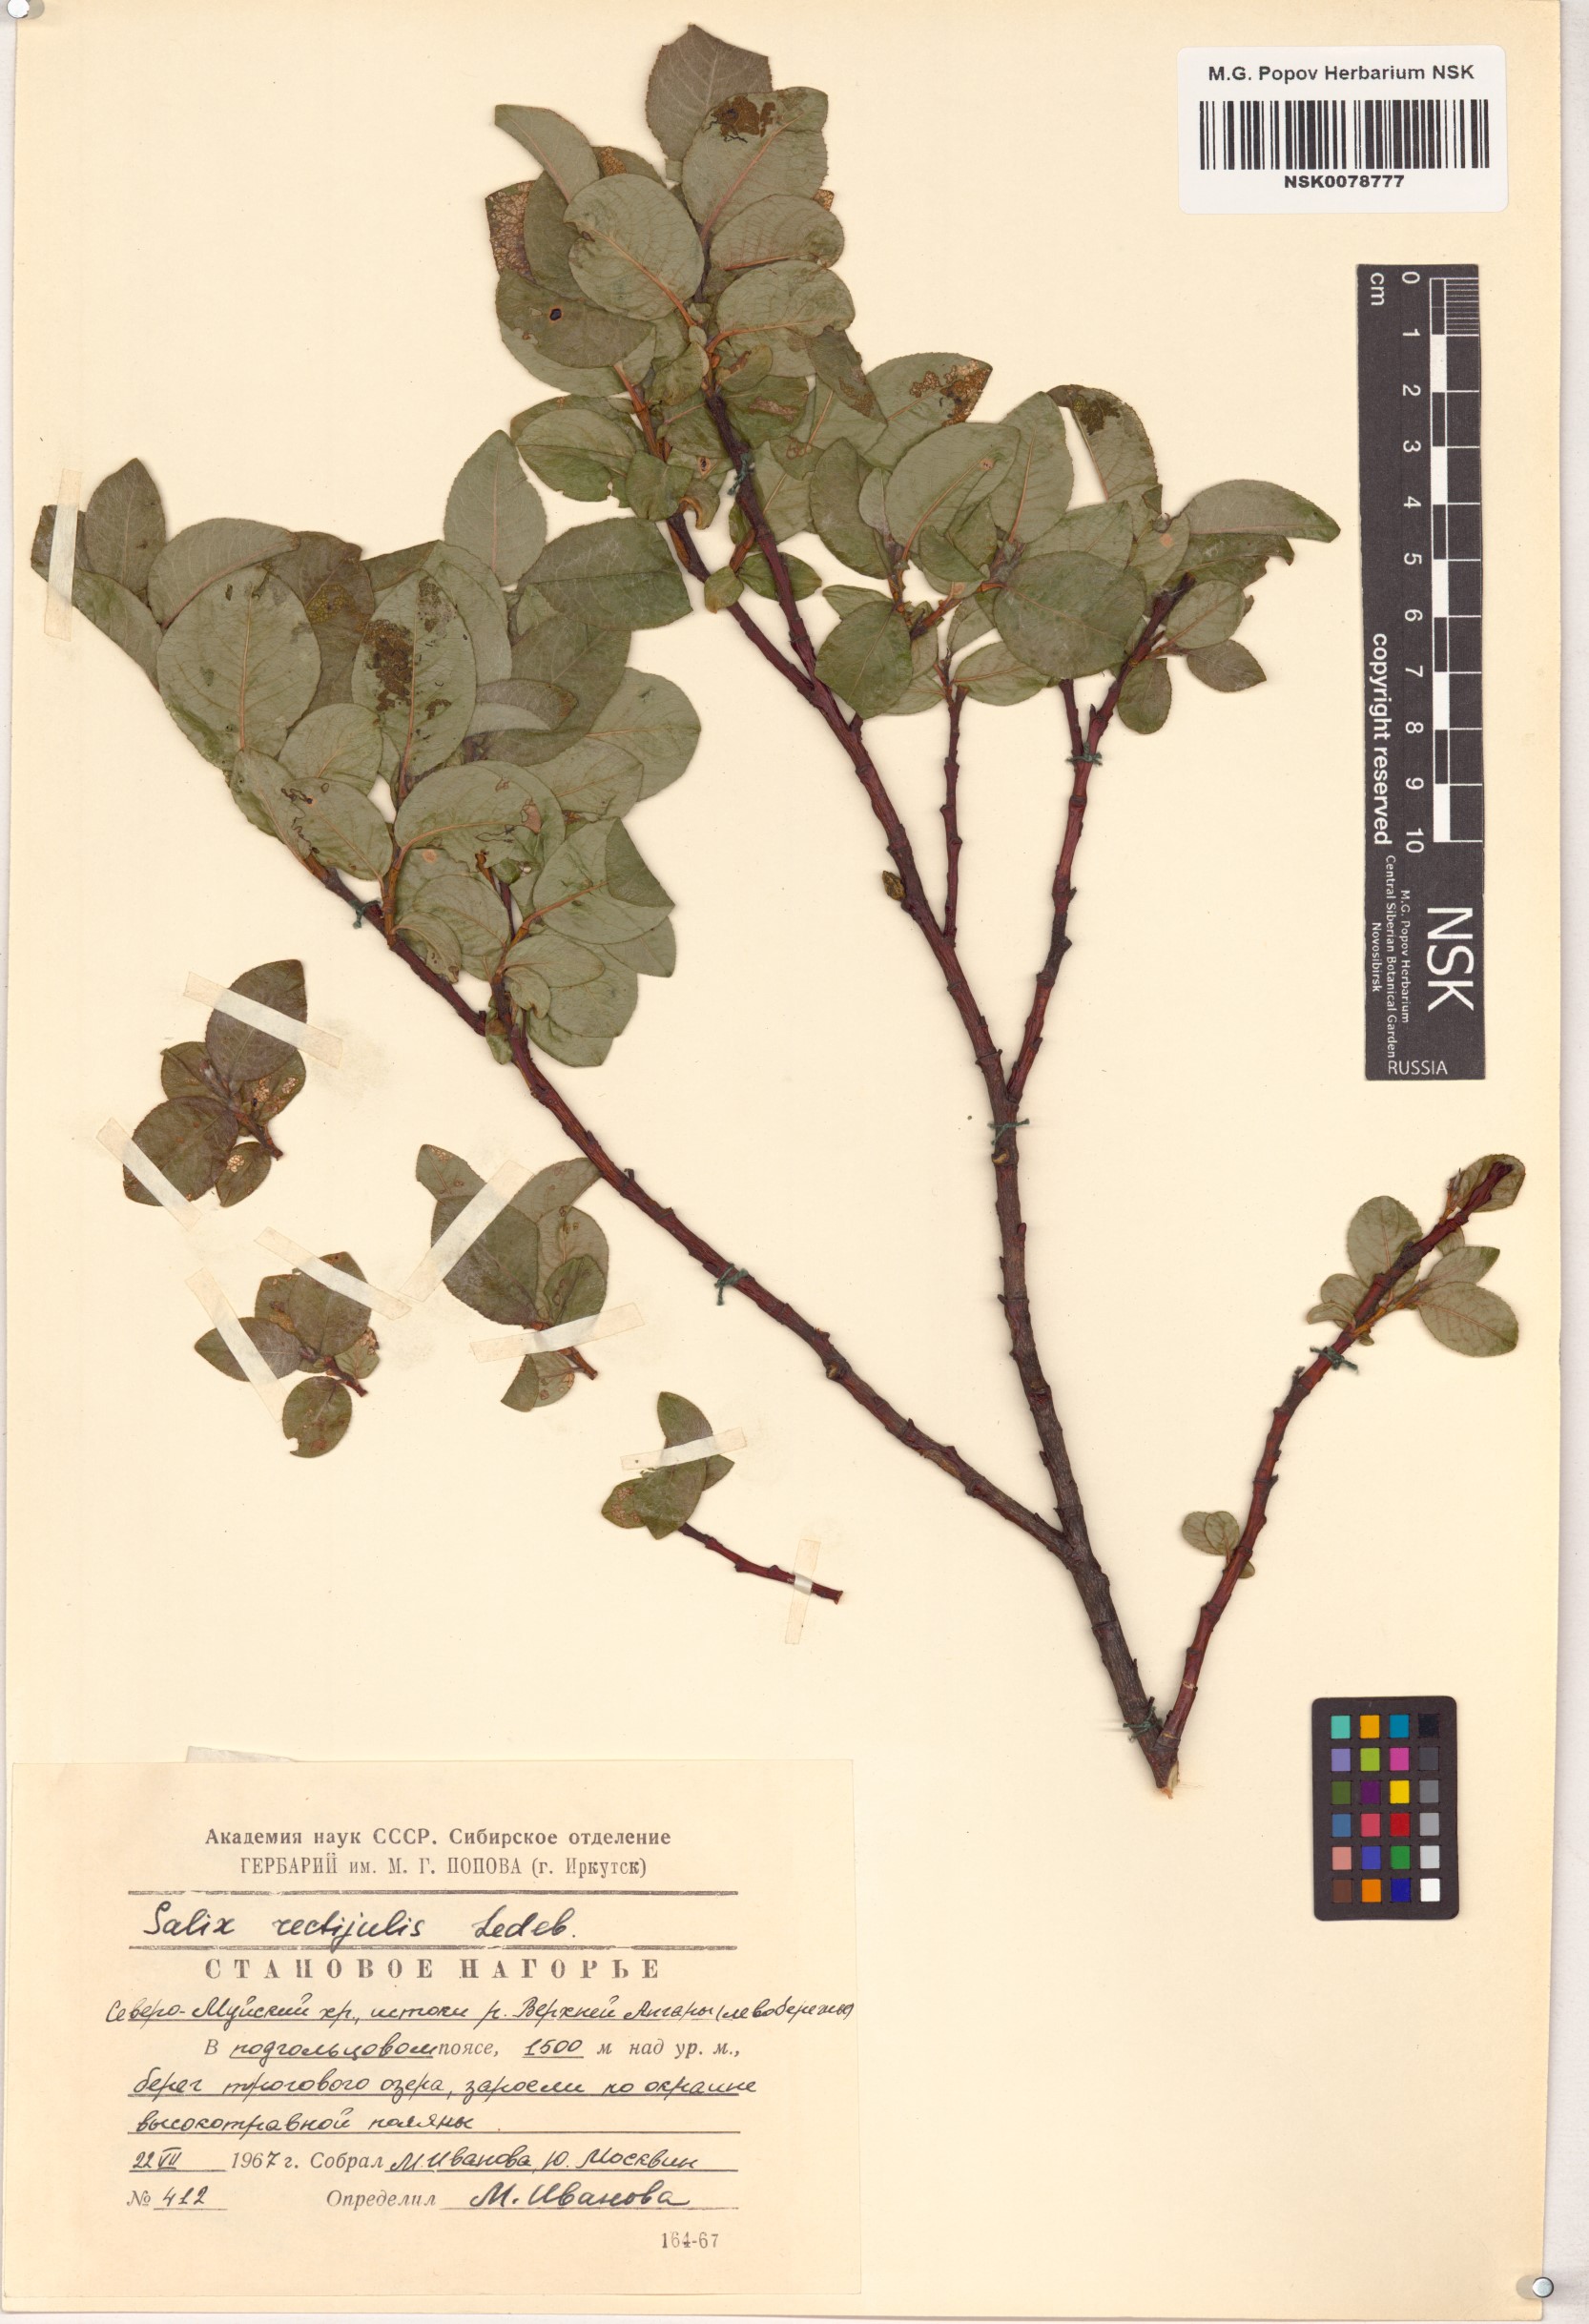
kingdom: Plantae
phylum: Tracheophyta
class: Magnoliopsida
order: Malpighiales
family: Salicaceae
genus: Salix
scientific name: Salix rectijulis
